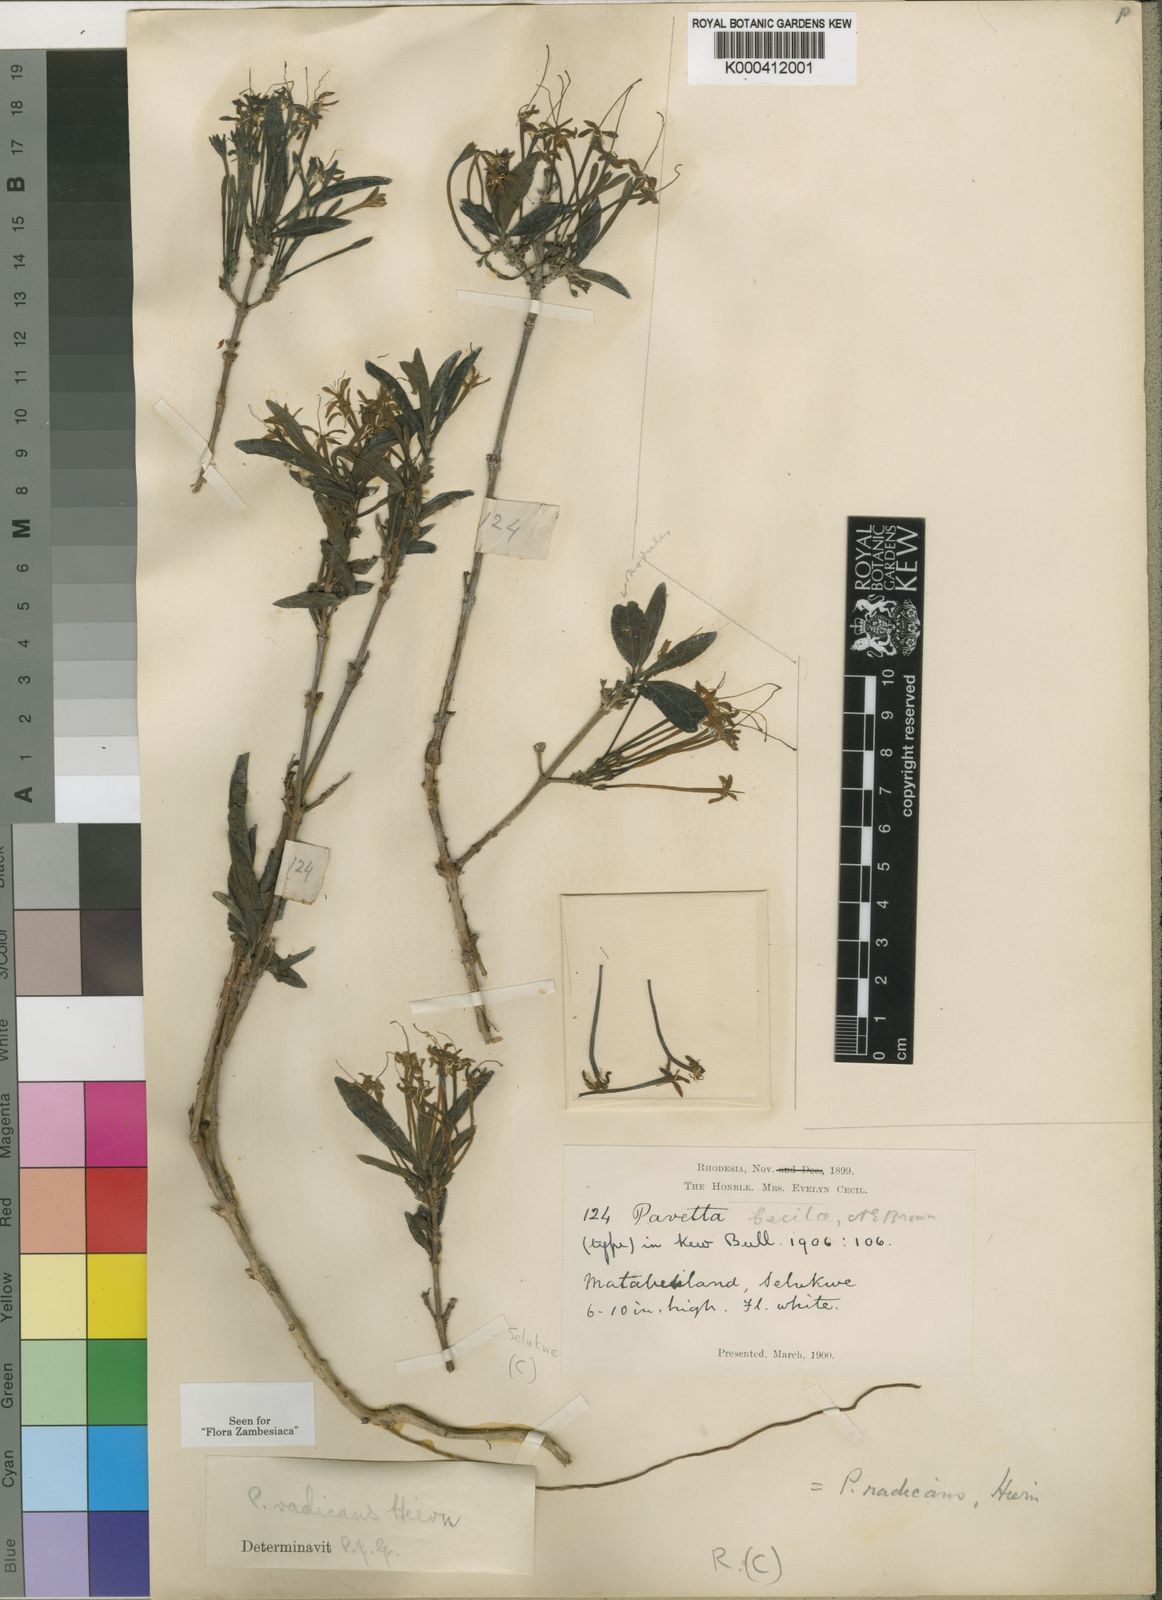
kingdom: Plantae
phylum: Tracheophyta
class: Magnoliopsida
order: Gentianales
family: Rubiaceae
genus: Pavetta
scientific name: Pavetta radicans
